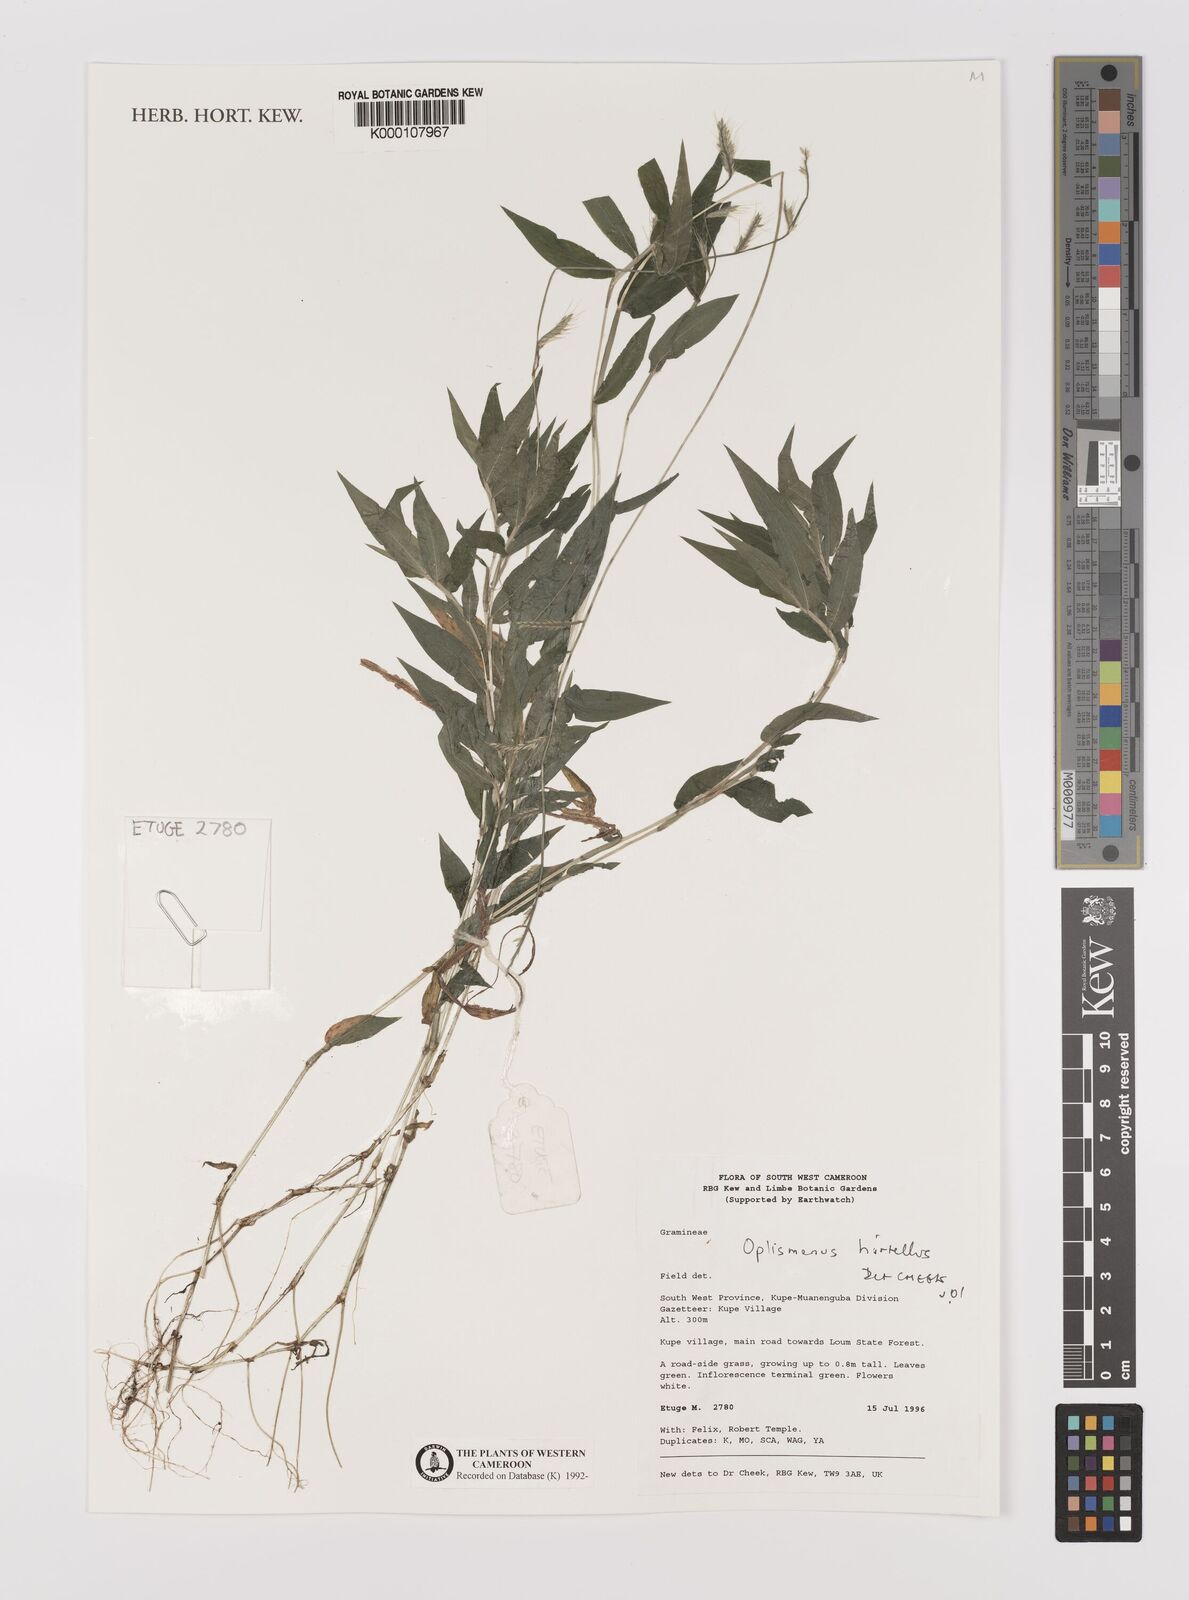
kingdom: Plantae
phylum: Tracheophyta
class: Liliopsida
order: Poales
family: Poaceae
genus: Oplismenus
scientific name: Oplismenus hirtellus
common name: Basketgrass
